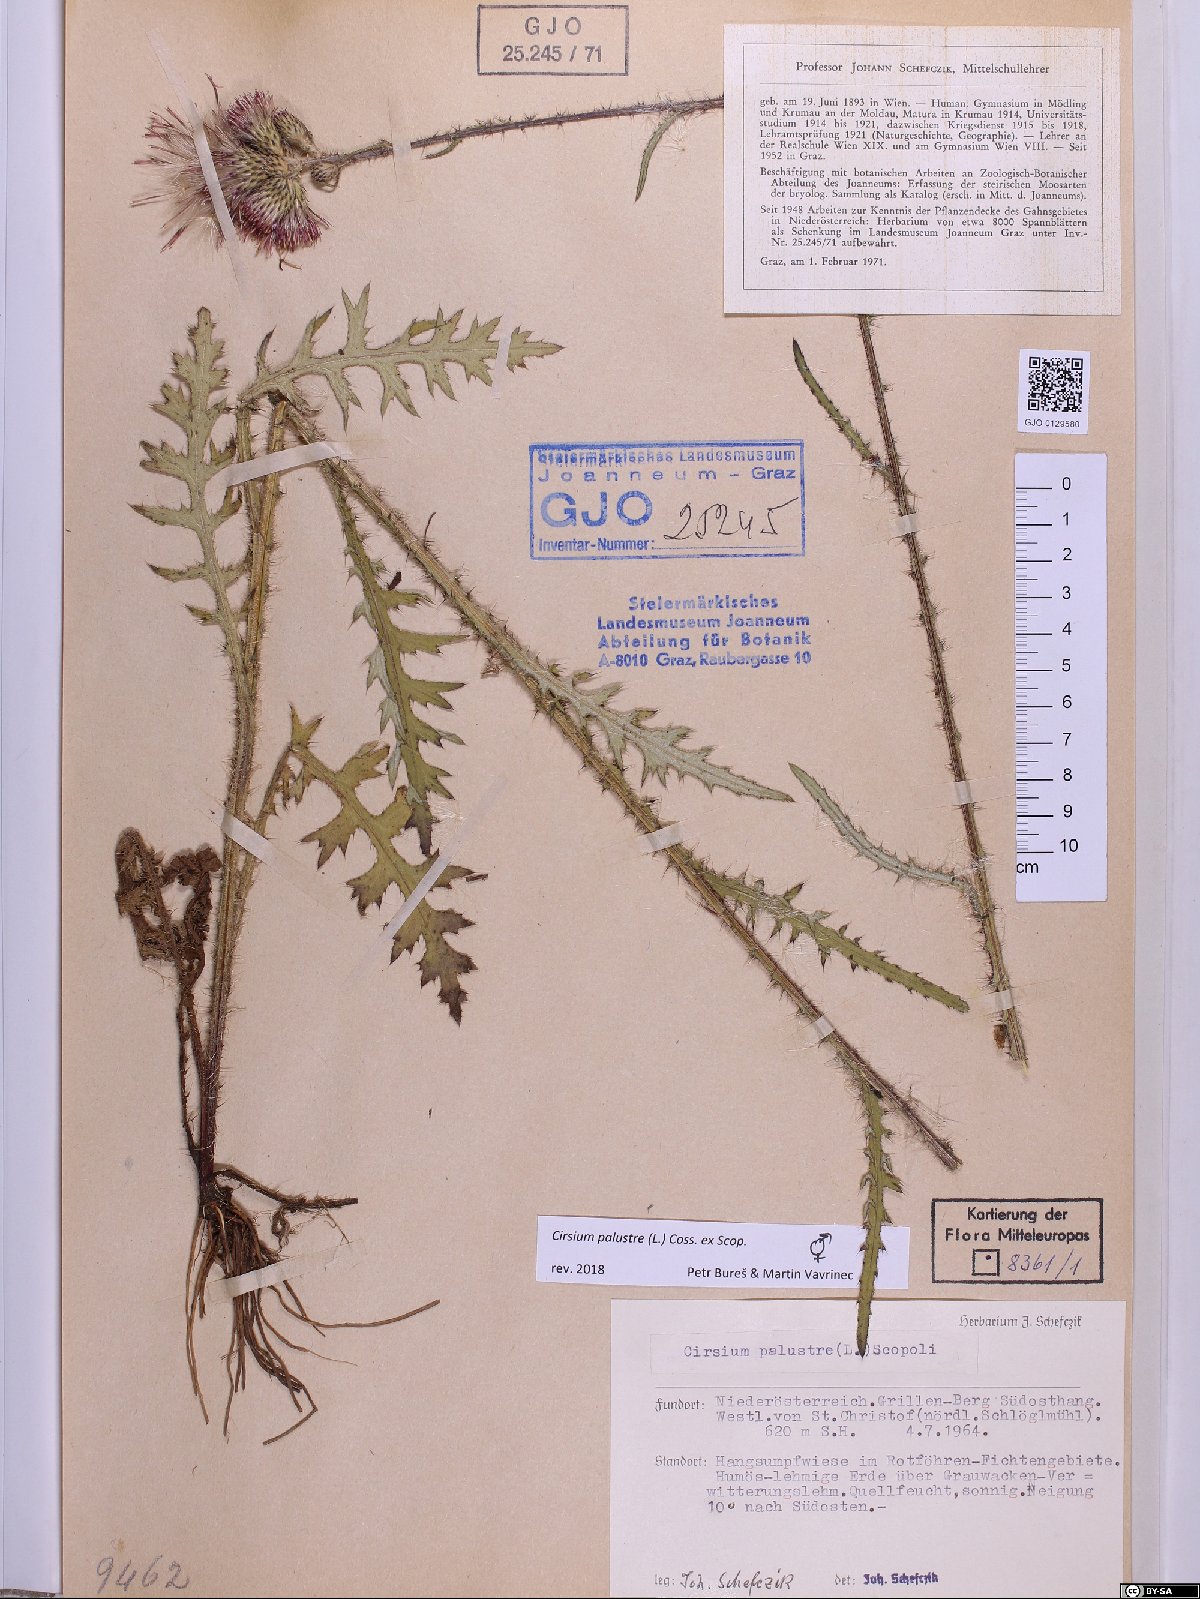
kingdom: Plantae
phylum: Tracheophyta
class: Magnoliopsida
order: Asterales
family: Asteraceae
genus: Cirsium
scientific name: Cirsium palustre
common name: Marsh thistle
